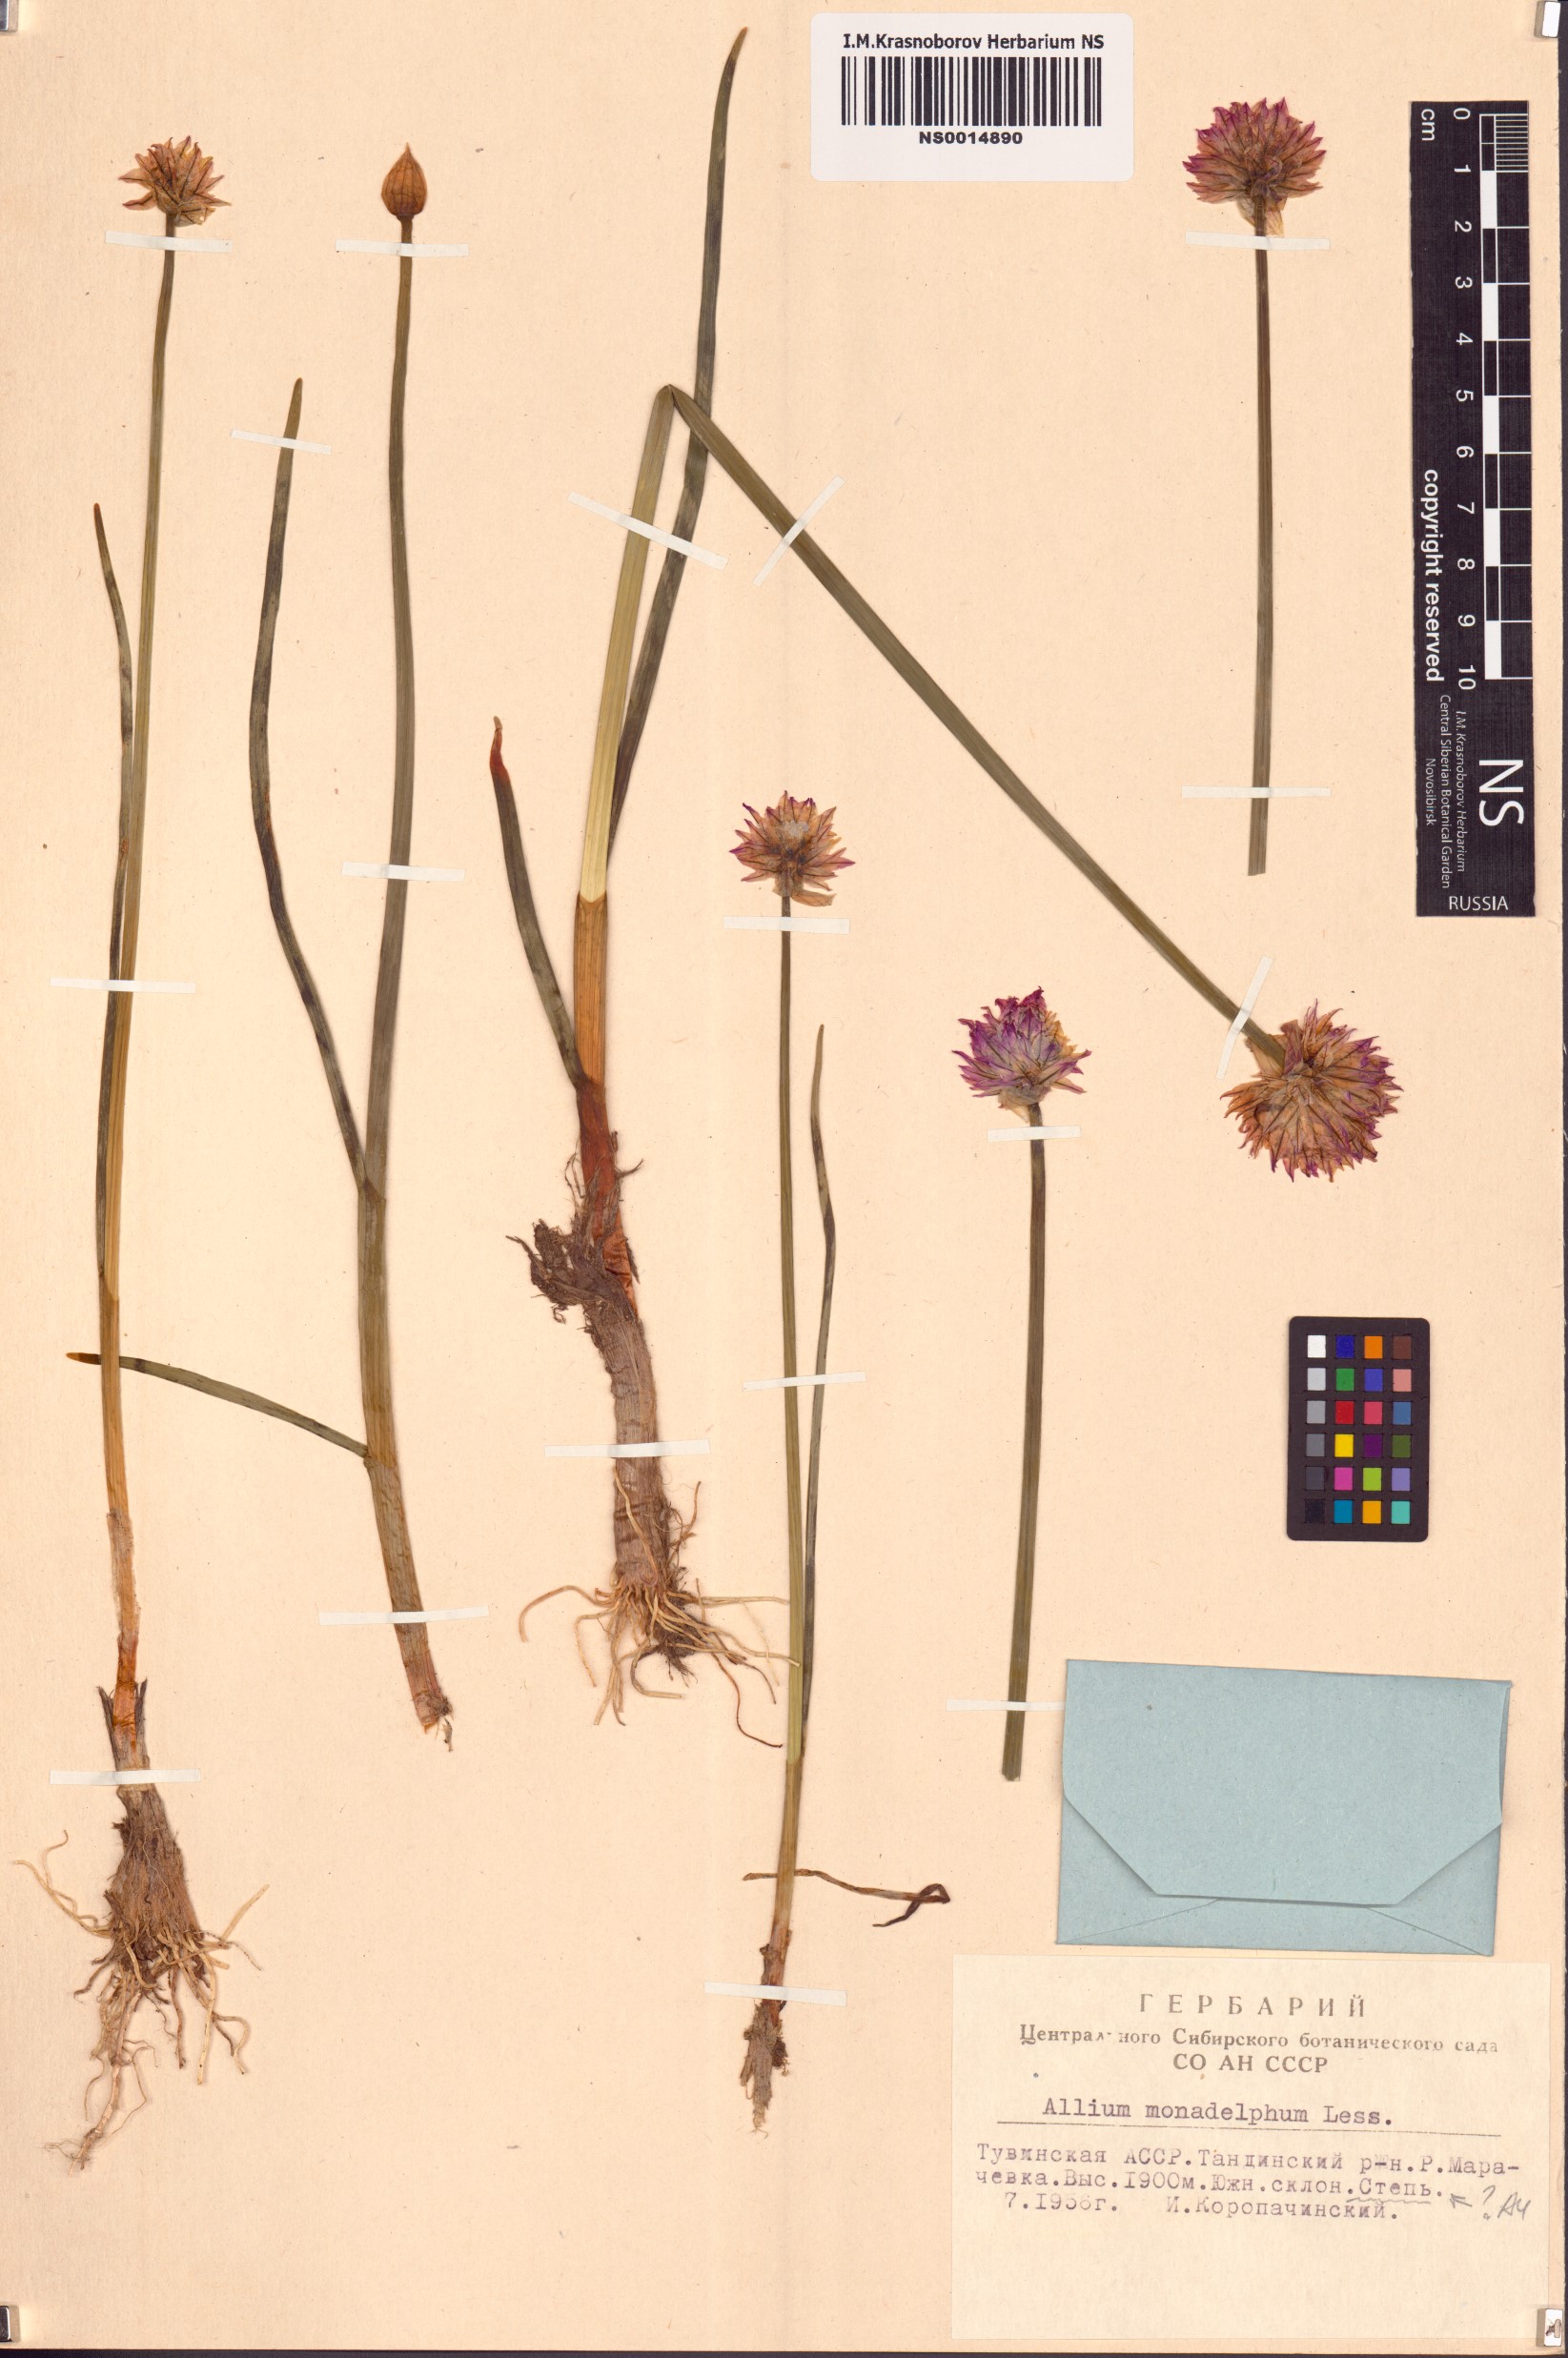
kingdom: Plantae
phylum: Tracheophyta
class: Liliopsida
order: Asparagales
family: Amaryllidaceae
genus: Allium
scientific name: Allium atrosanguineum
